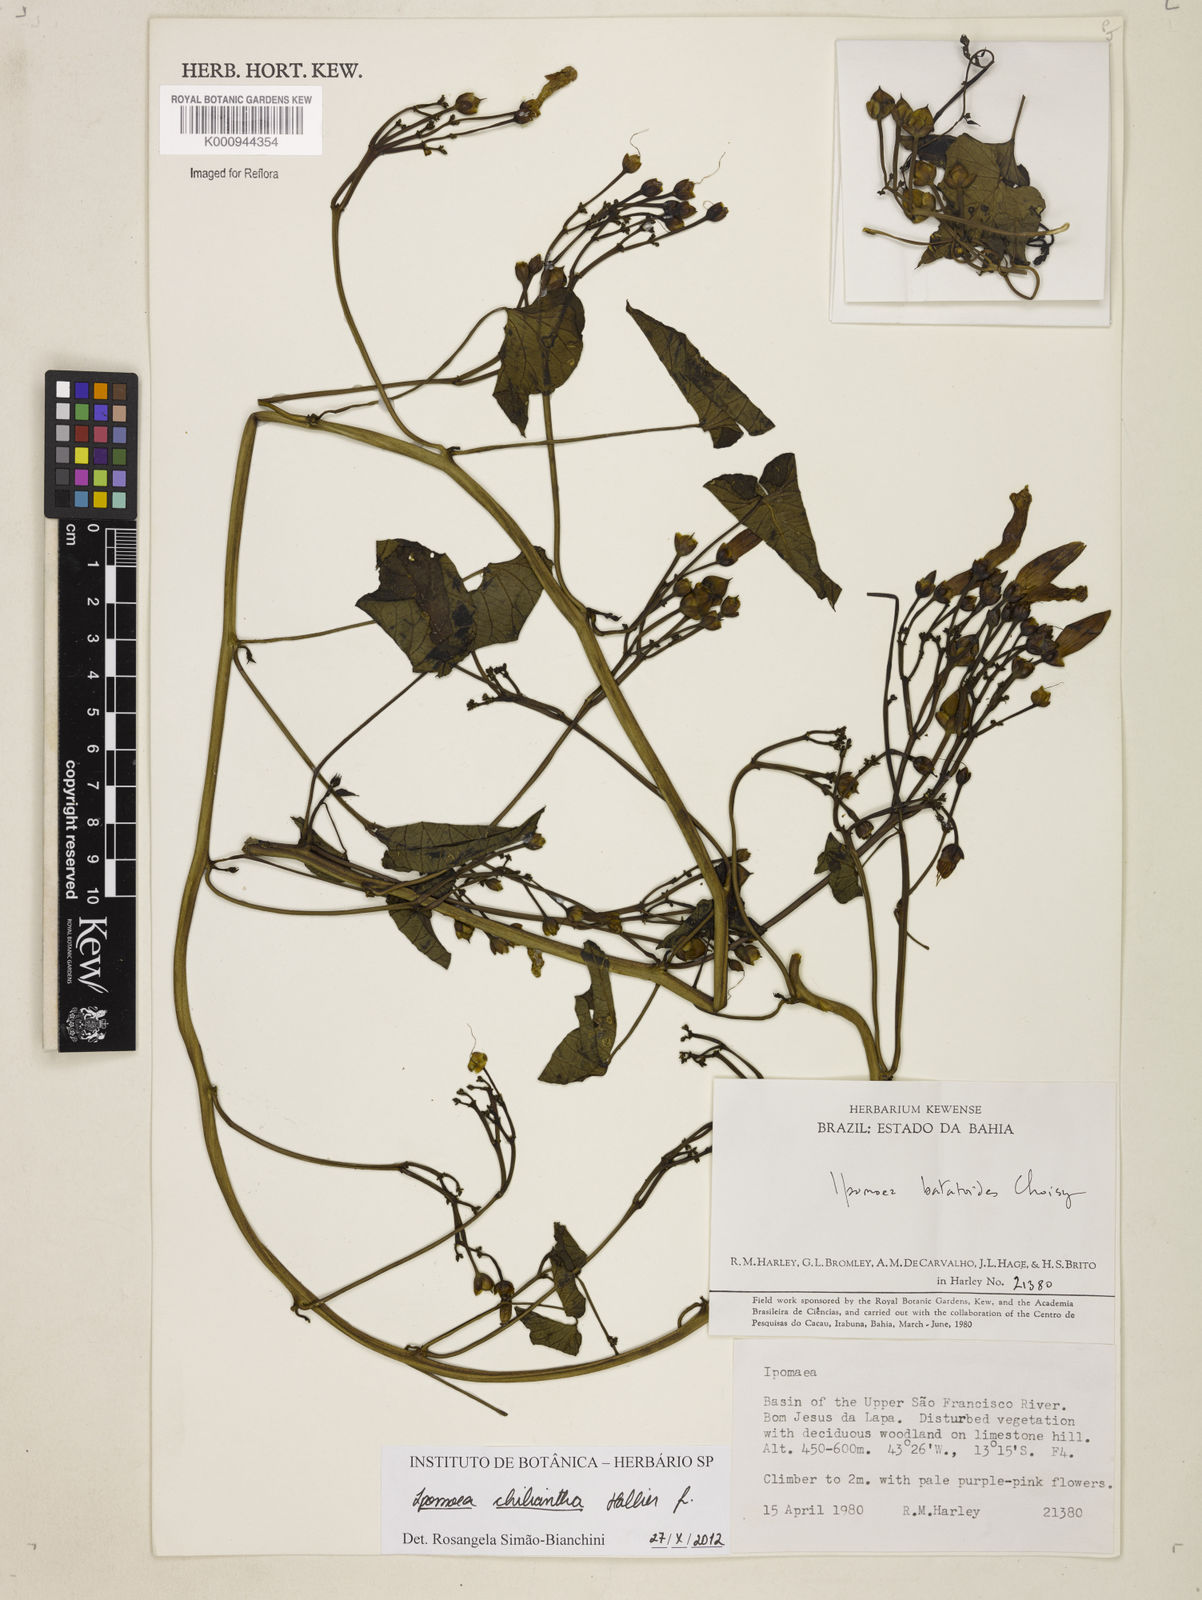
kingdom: Plantae
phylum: Tracheophyta
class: Magnoliopsida
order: Solanales
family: Convolvulaceae
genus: Ipomoea
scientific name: Ipomoea amnicola
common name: Redcenter morning-glory
